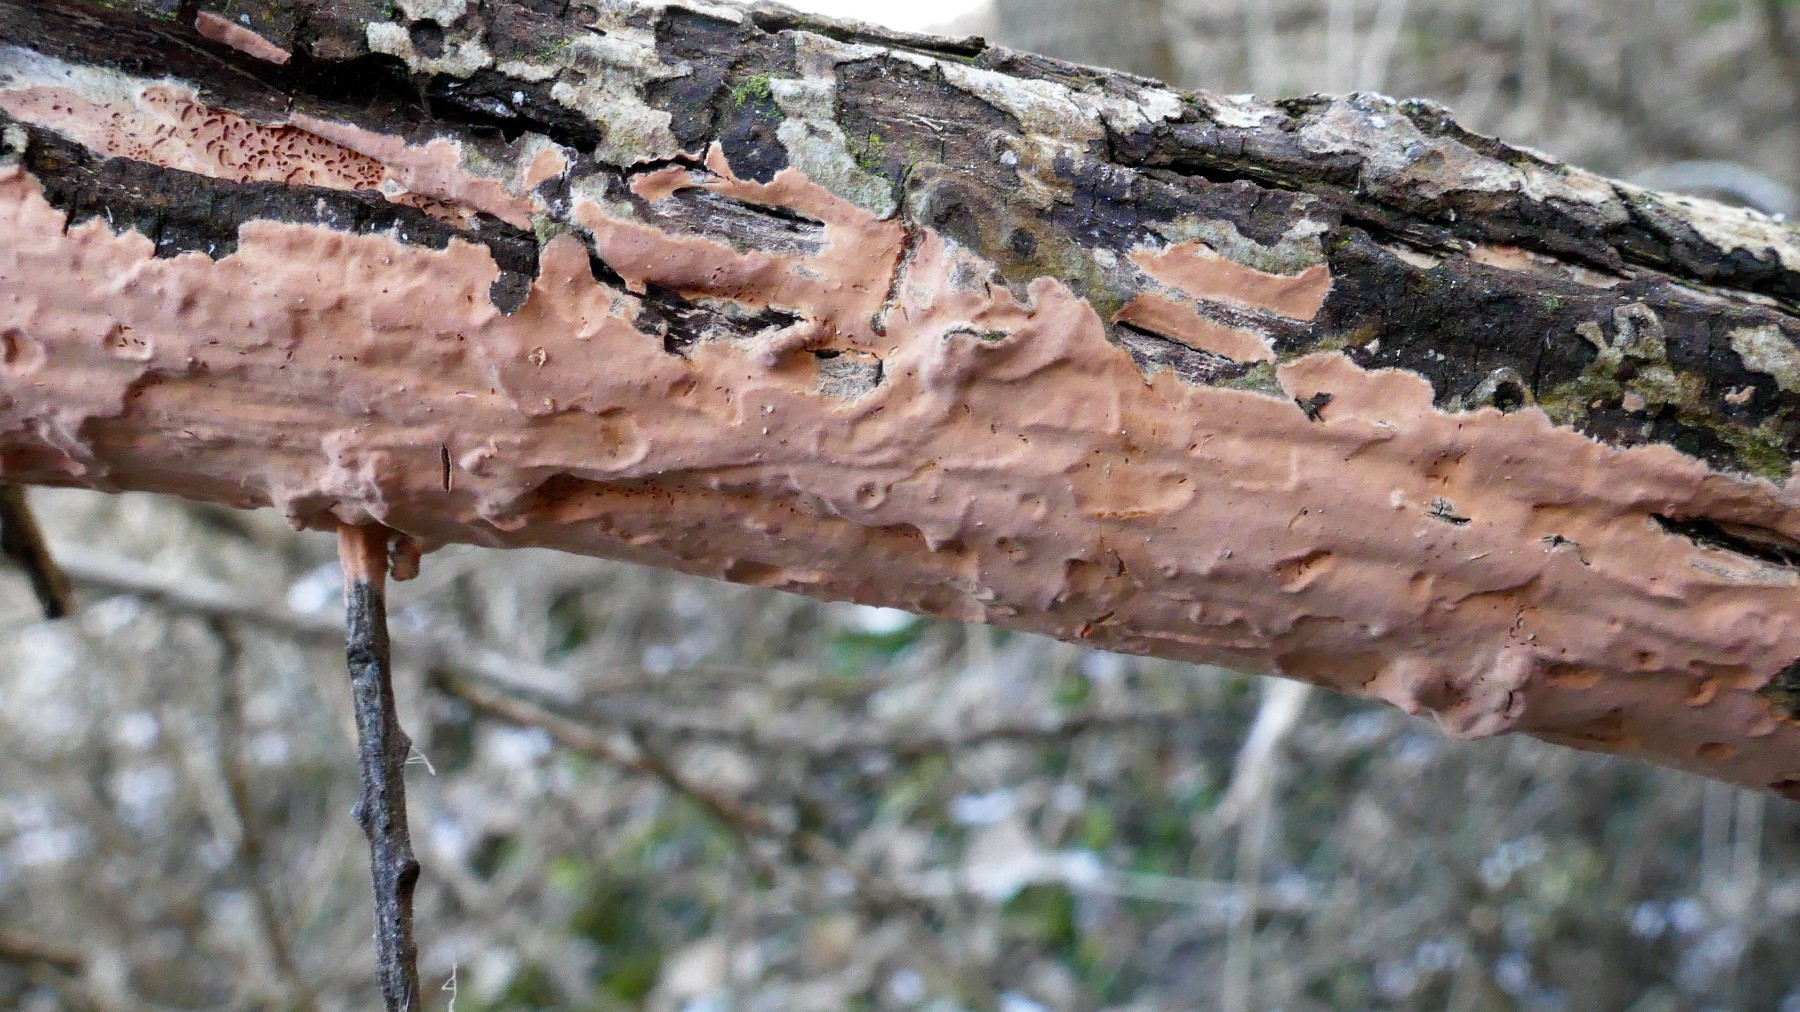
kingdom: Fungi
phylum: Basidiomycota
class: Agaricomycetes
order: Russulales
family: Peniophoraceae
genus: Peniophora
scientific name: Peniophora incarnata
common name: laksefarvet voksskind
